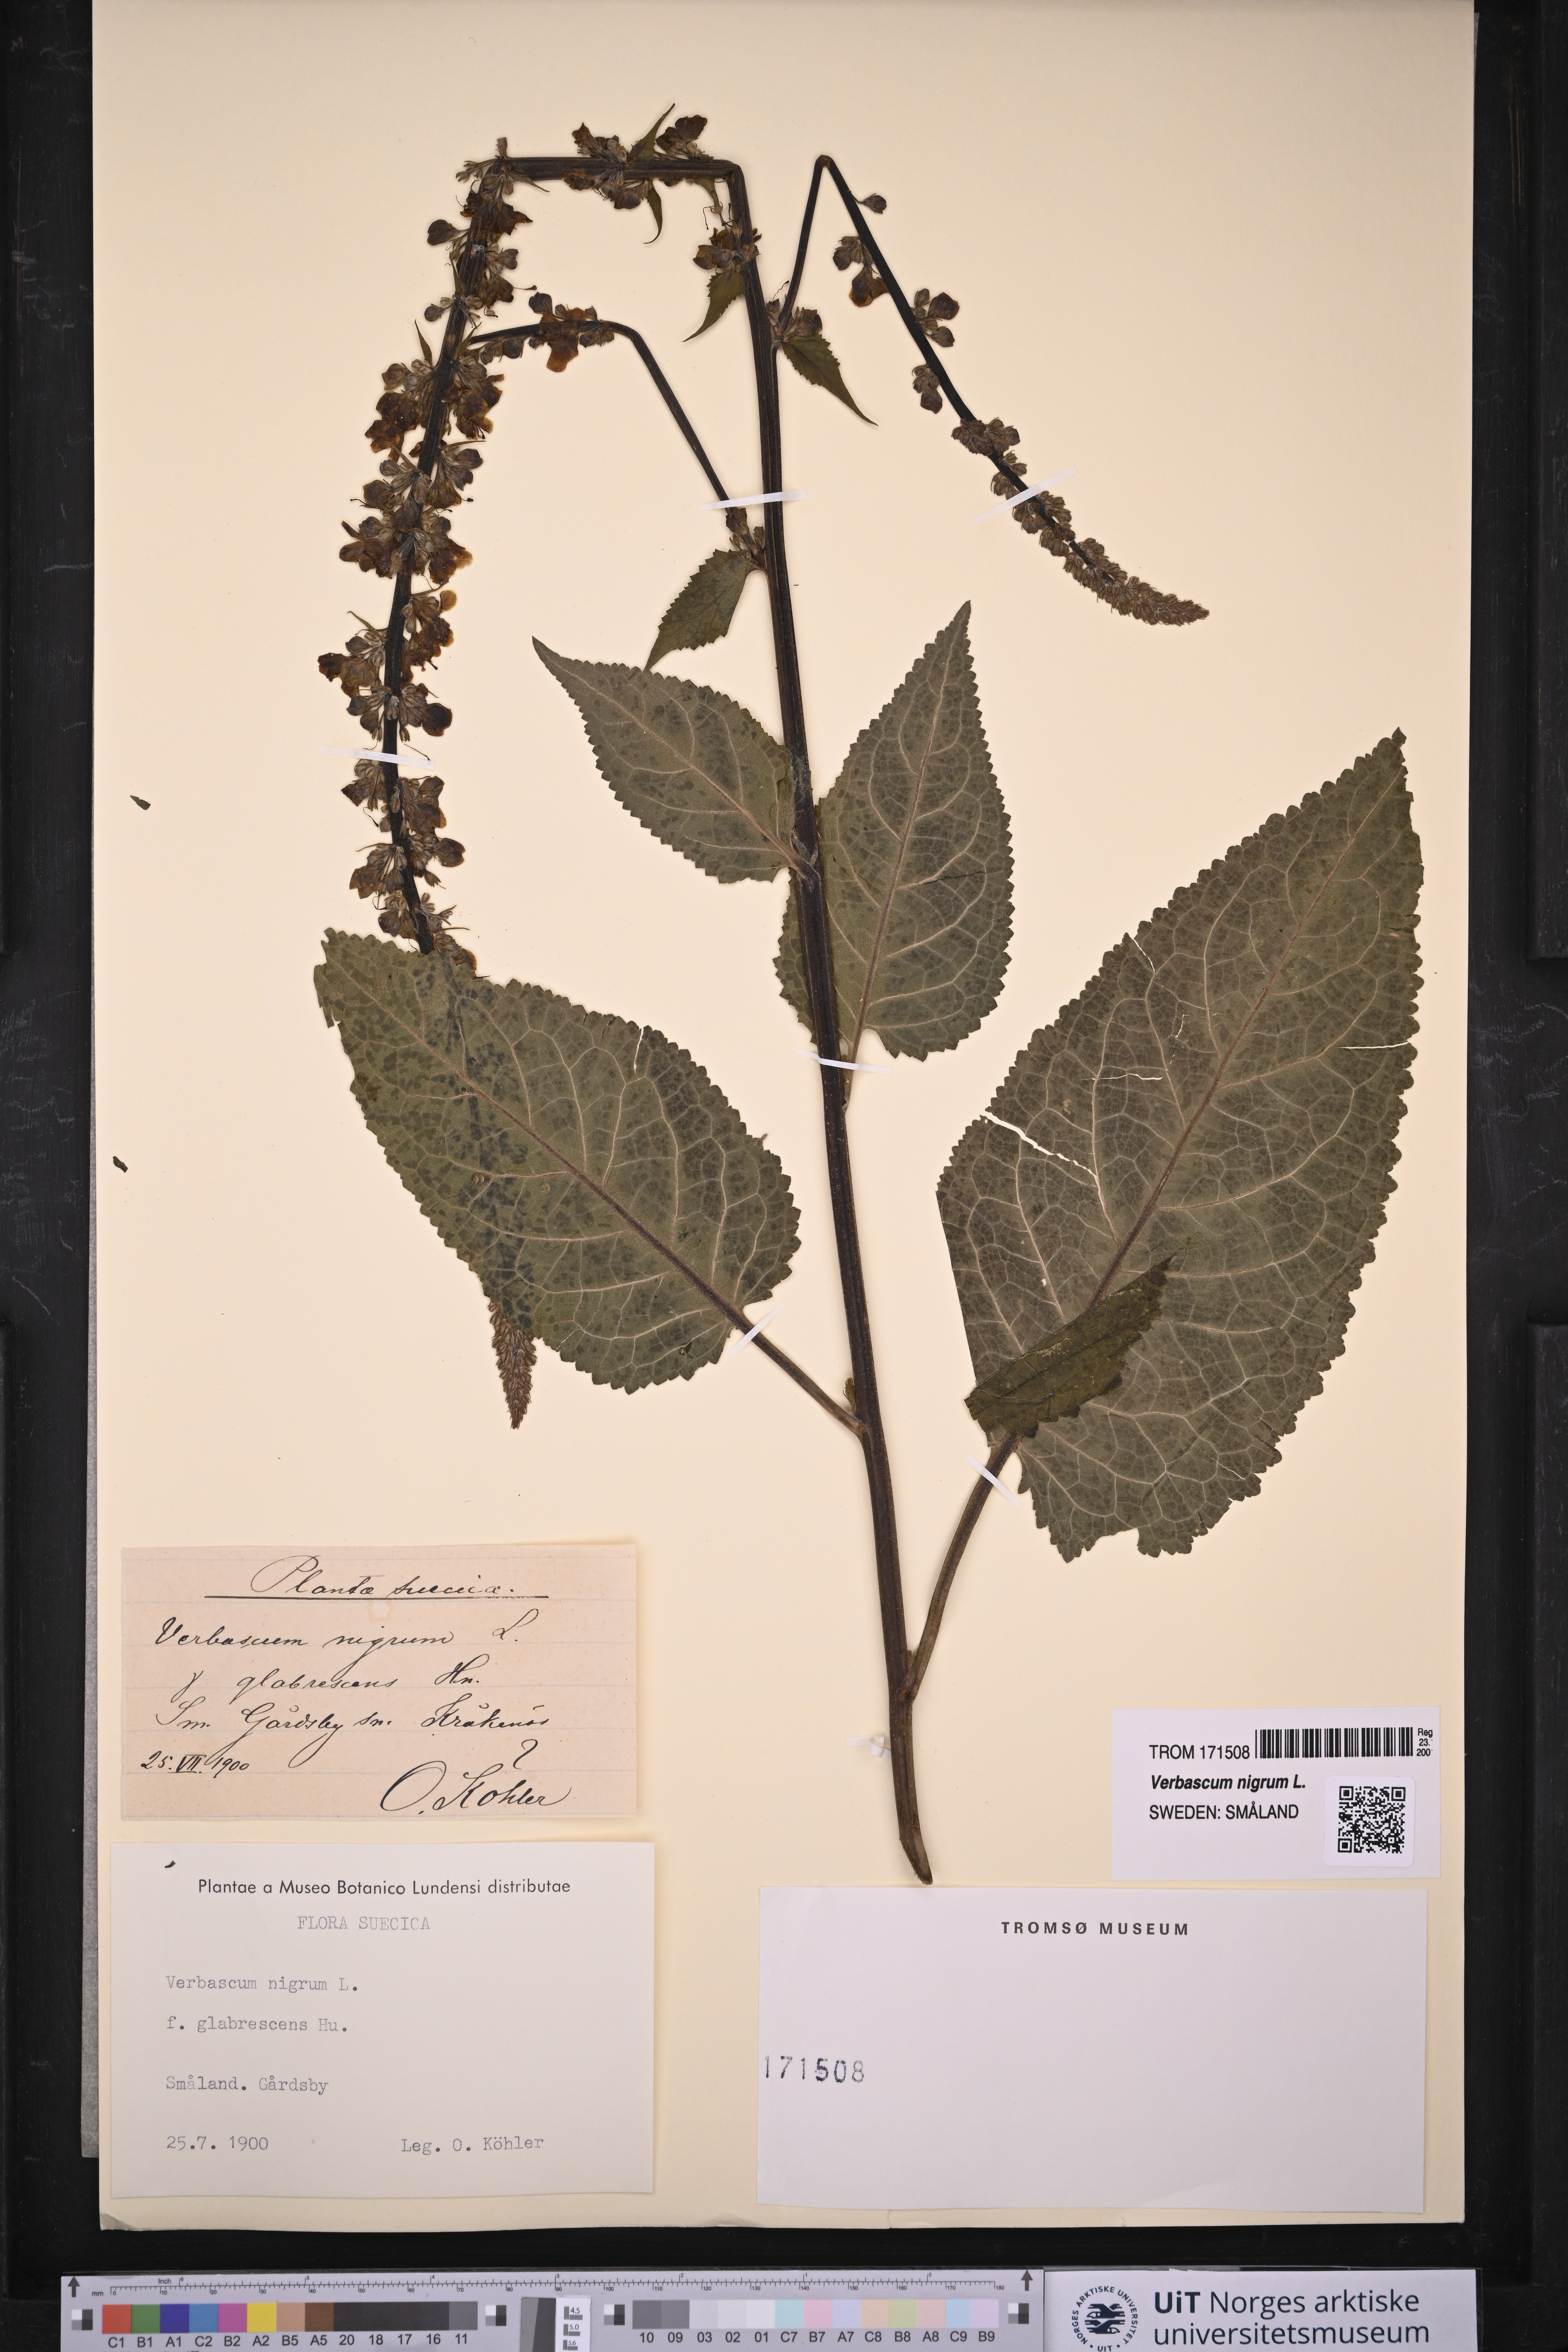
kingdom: Plantae
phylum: Tracheophyta
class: Magnoliopsida
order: Lamiales
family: Scrophulariaceae
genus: Verbascum
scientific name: Verbascum nigrum
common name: Dark mullein
